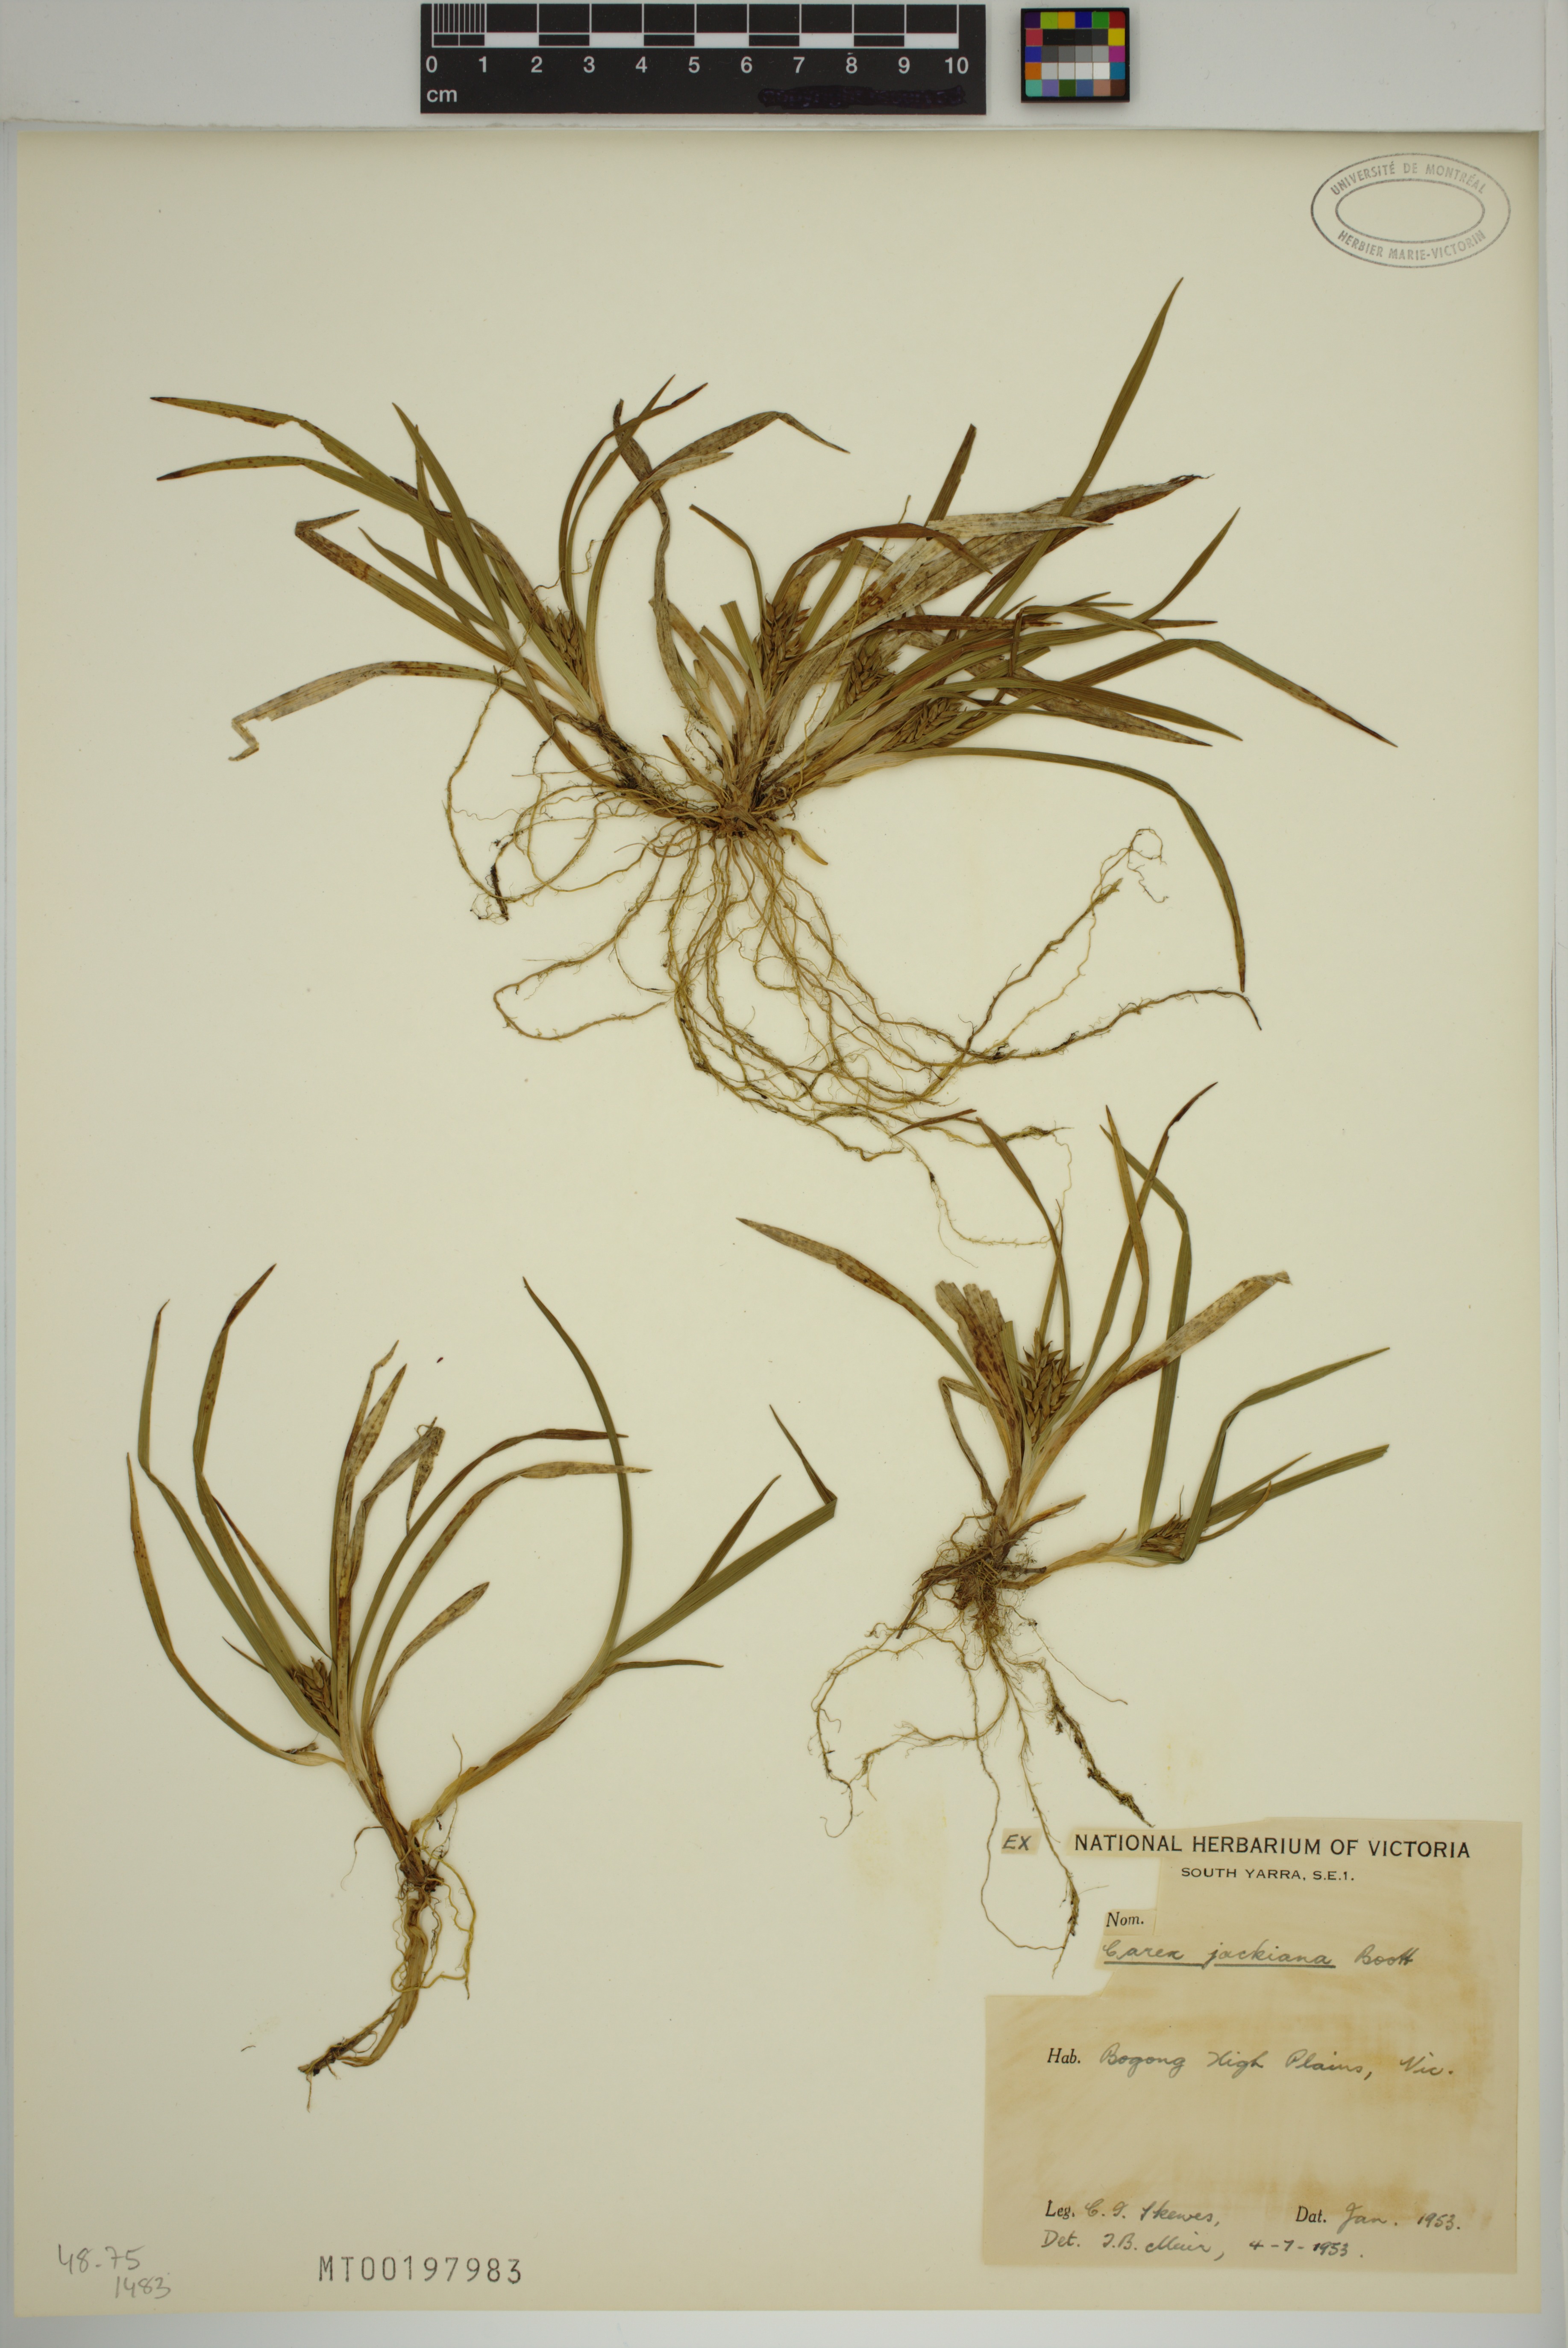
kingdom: Plantae
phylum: Tracheophyta
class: Liliopsida
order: Poales
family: Cyperaceae
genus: Carex
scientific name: Carex jackiana
